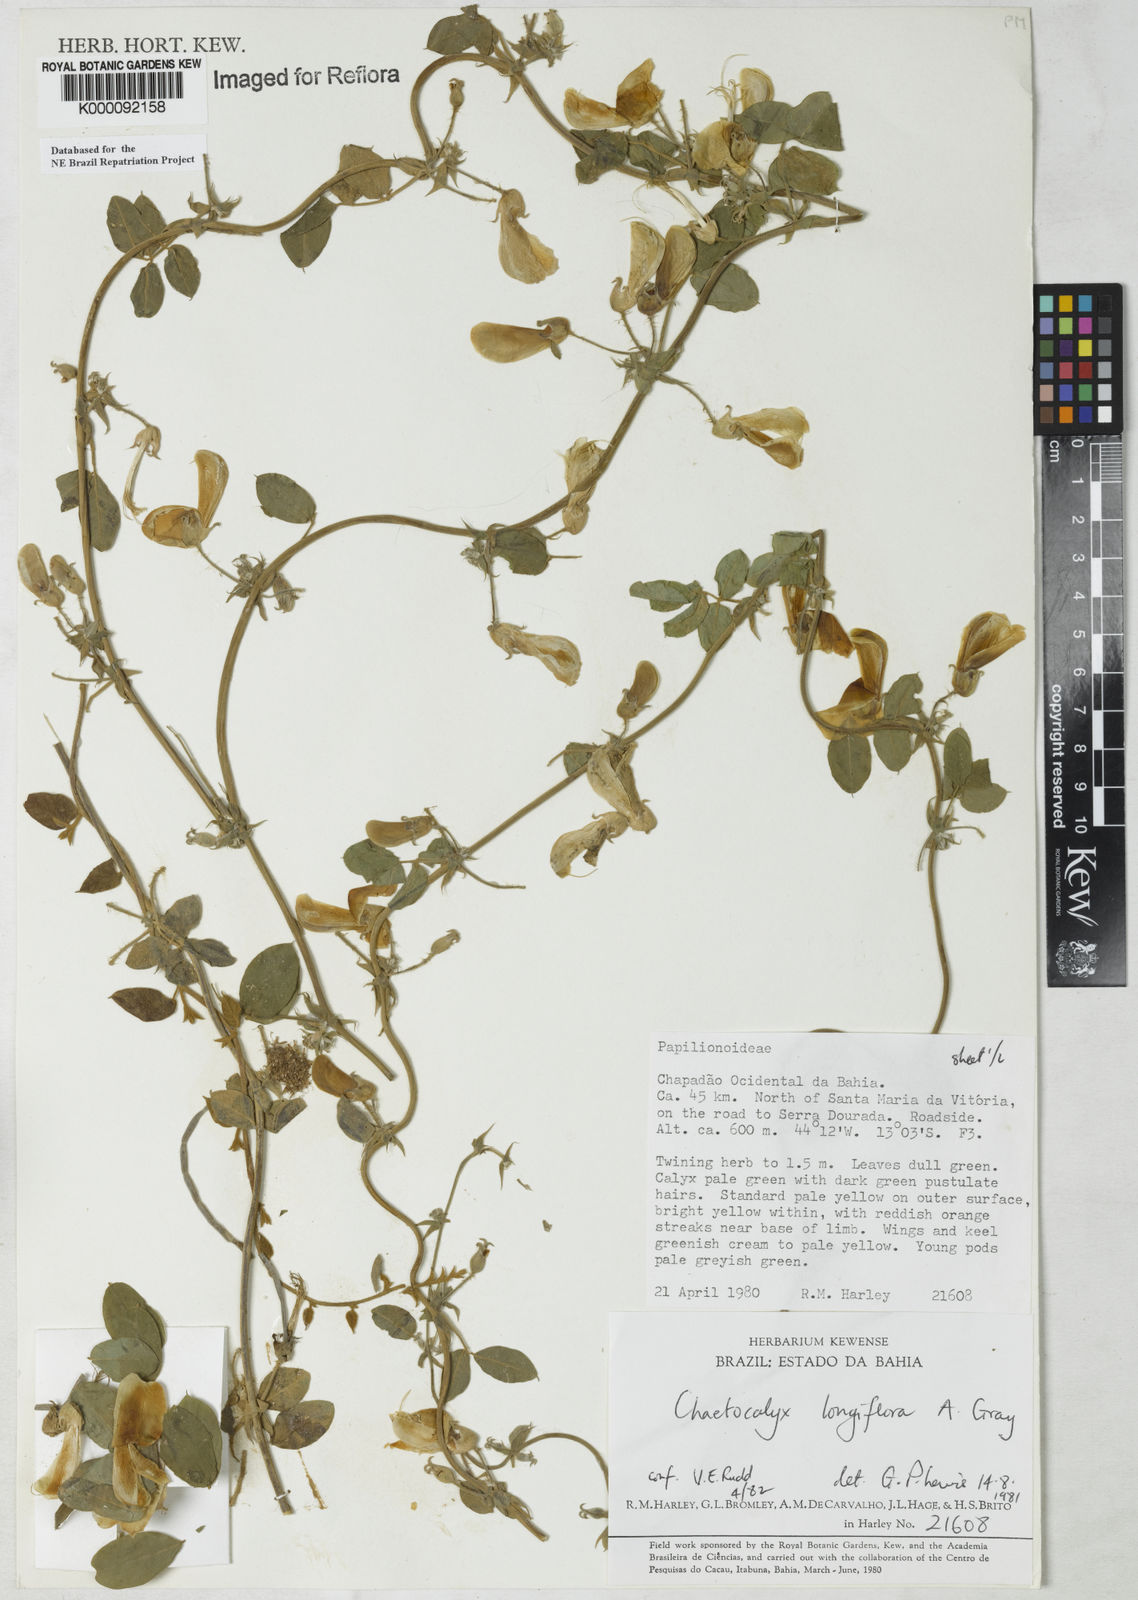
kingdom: Plantae
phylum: Tracheophyta
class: Magnoliopsida
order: Fabales
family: Fabaceae
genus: Nissolia
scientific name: Nissolia longiflora
